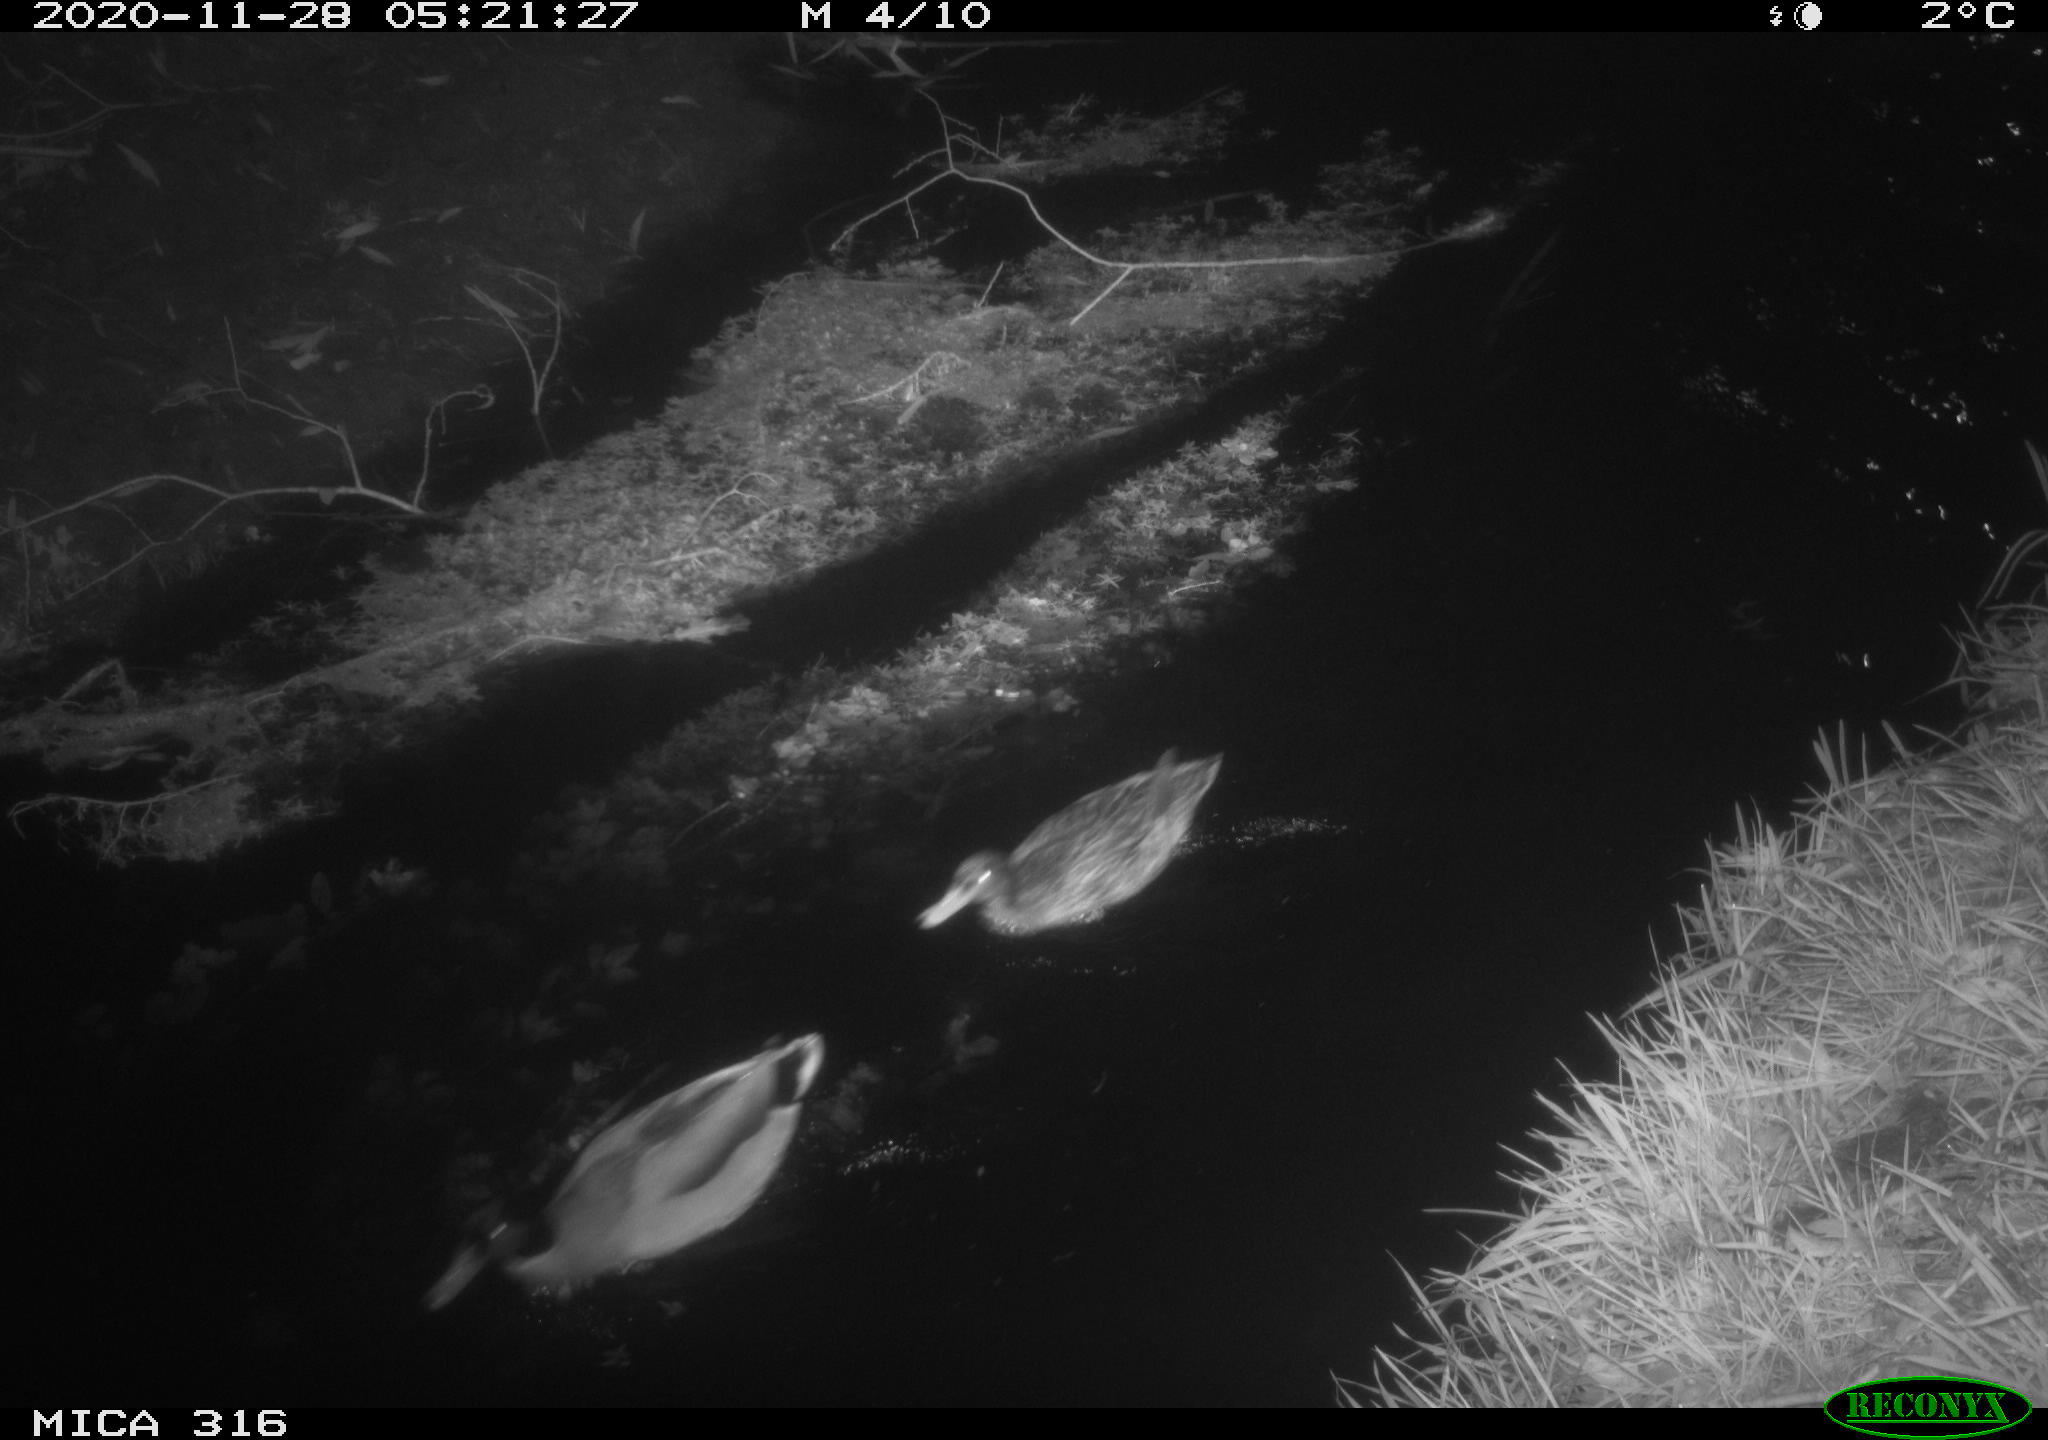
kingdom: Animalia
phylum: Chordata
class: Aves
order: Anseriformes
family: Anatidae
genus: Anas
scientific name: Anas platyrhynchos
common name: Mallard
